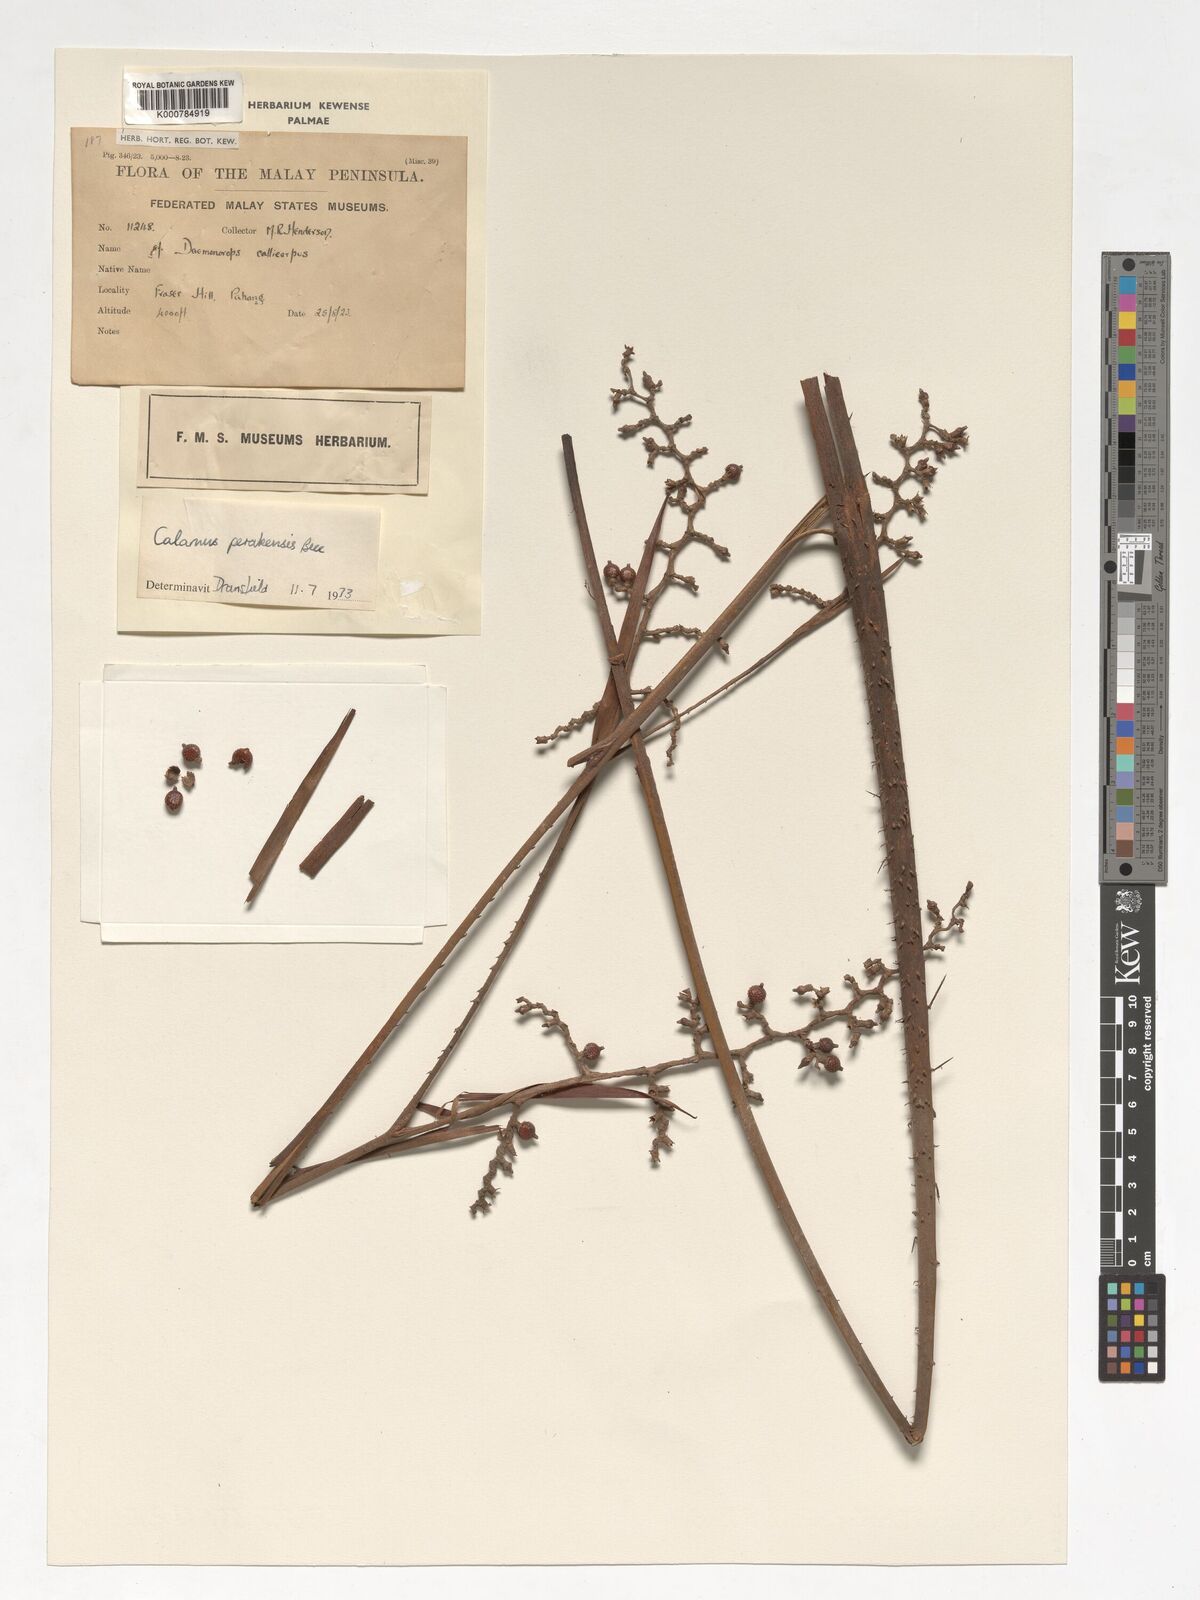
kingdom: Plantae
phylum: Tracheophyta
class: Liliopsida
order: Arecales
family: Arecaceae
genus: Calamus
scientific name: Calamus perakensis
